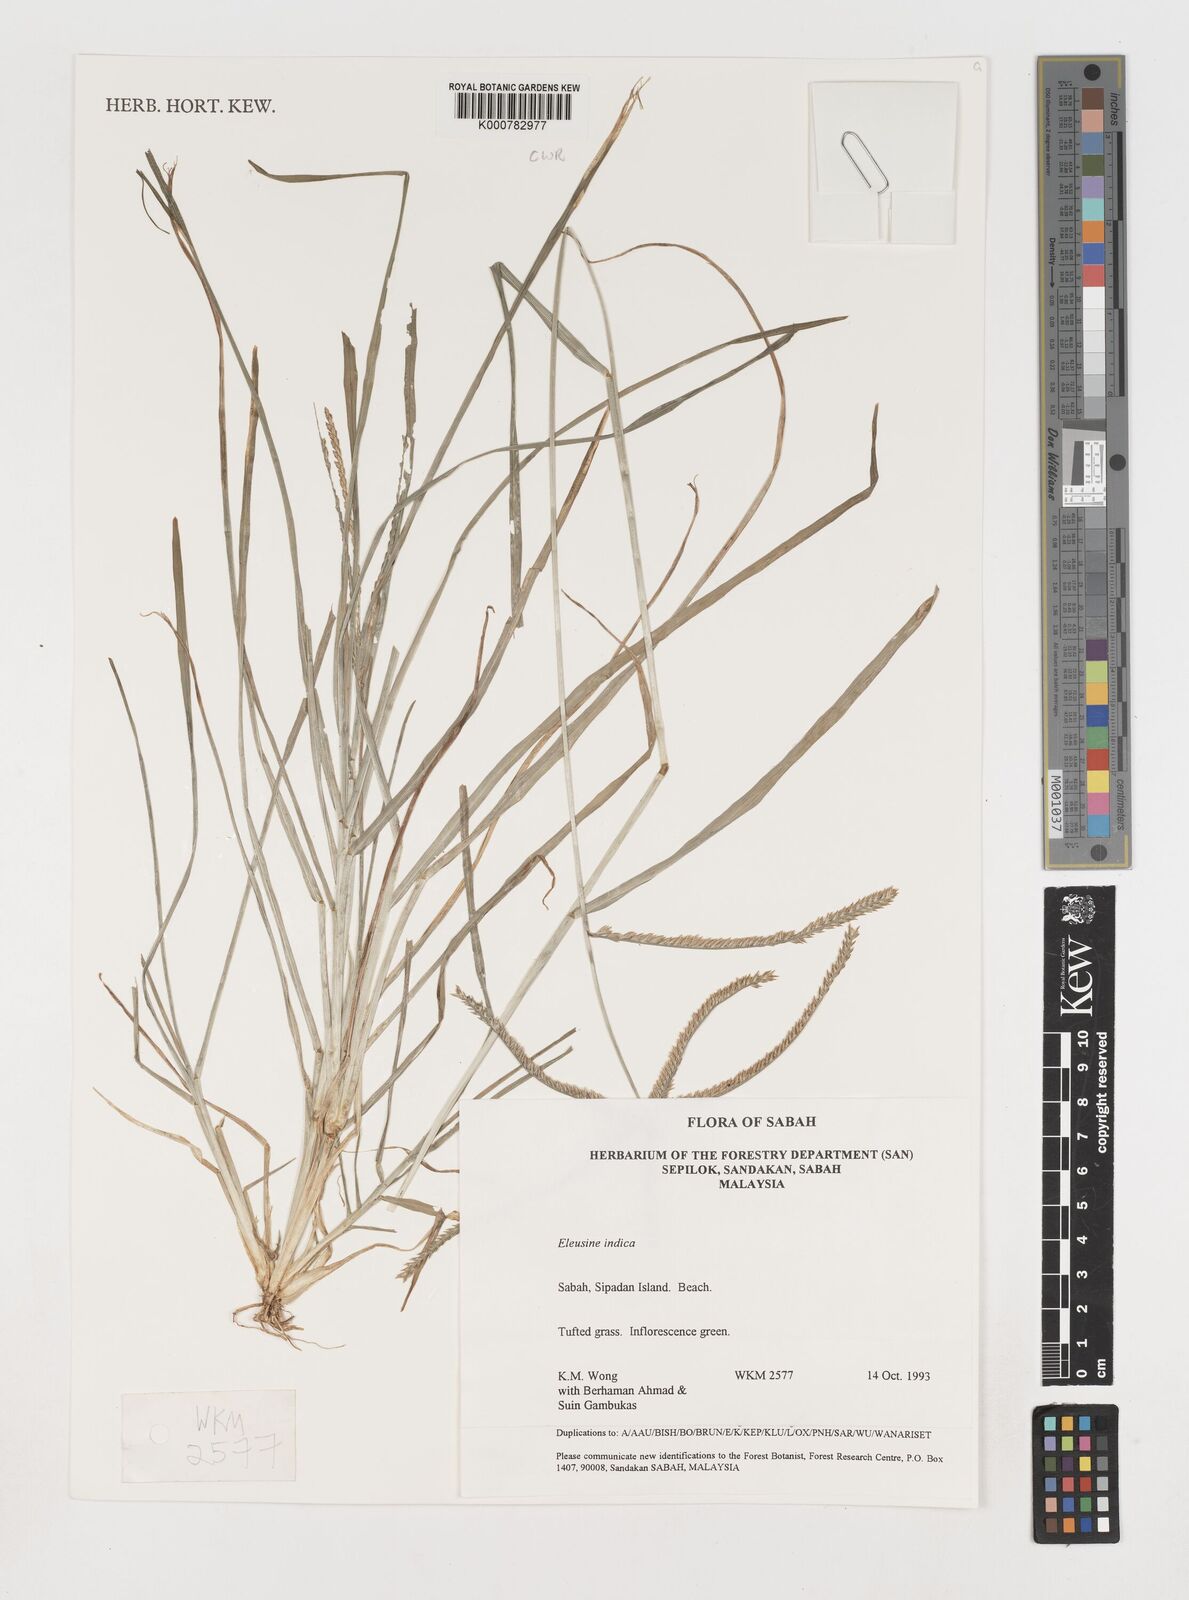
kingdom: Plantae
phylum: Tracheophyta
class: Liliopsida
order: Poales
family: Poaceae
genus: Eleusine
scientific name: Eleusine indica
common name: Yard-grass
